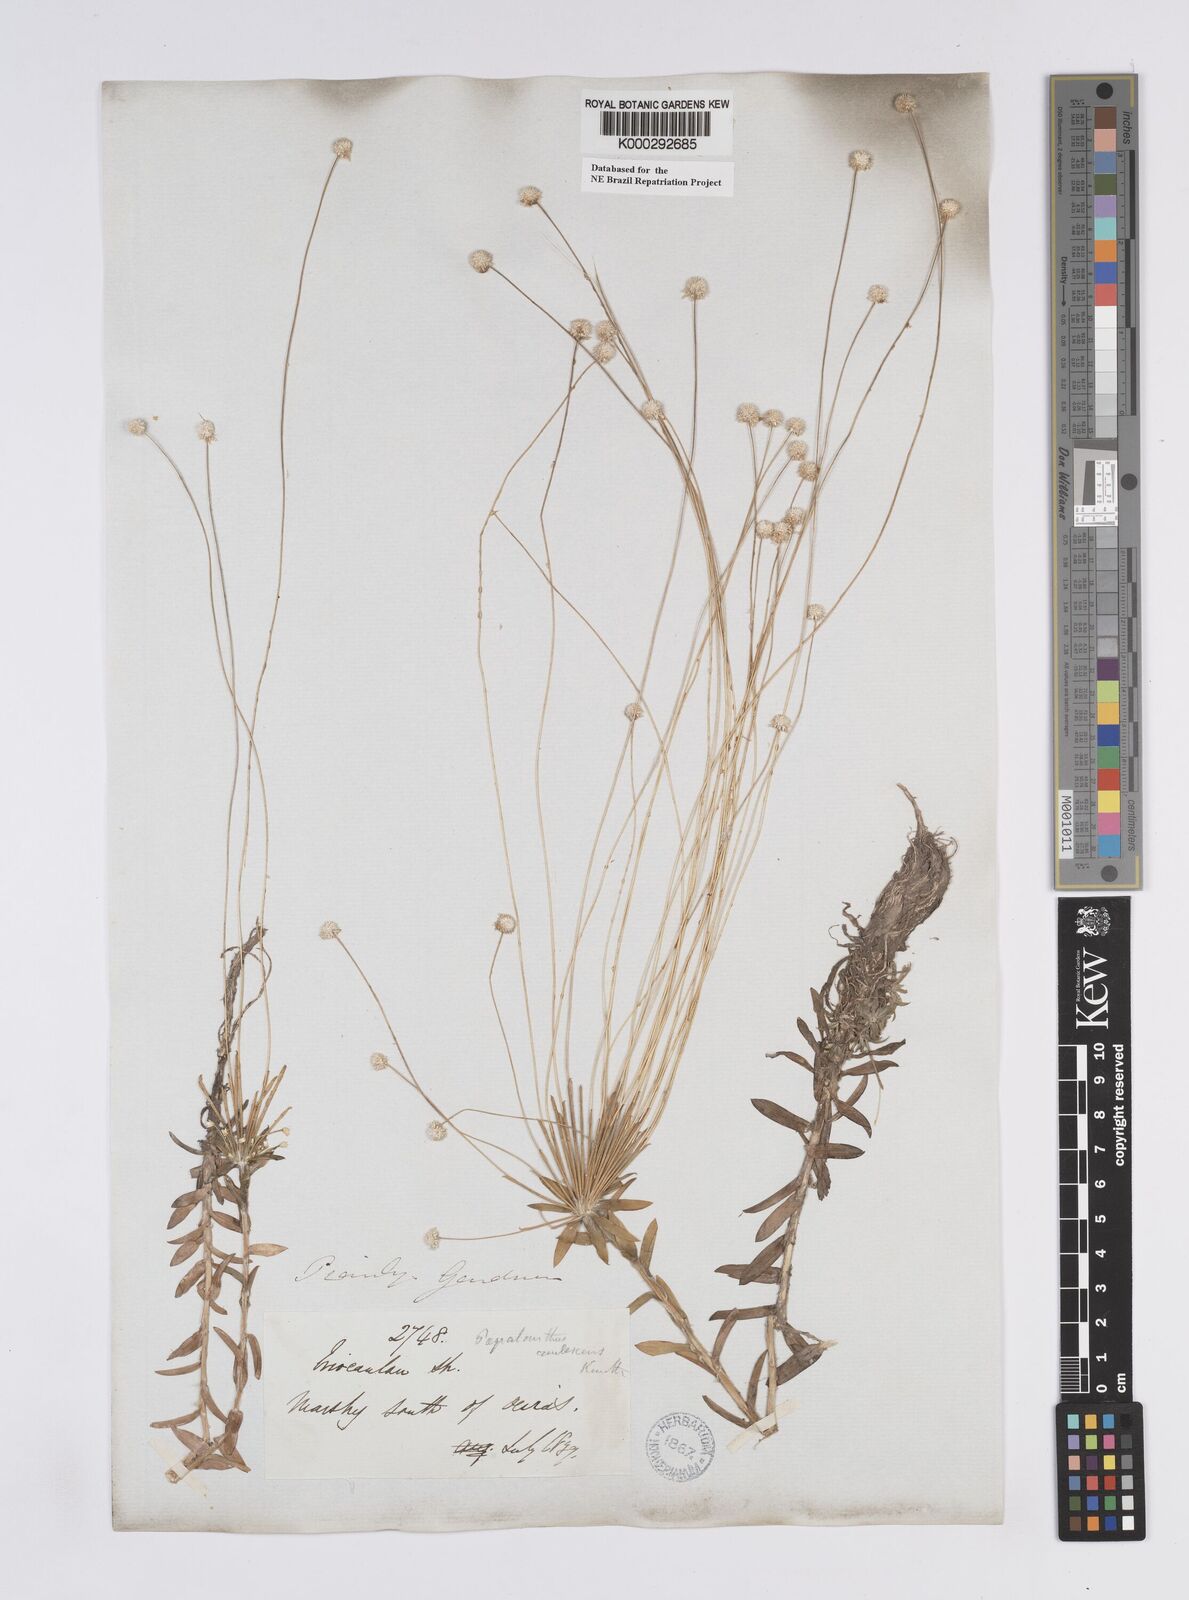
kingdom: Plantae
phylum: Tracheophyta
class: Liliopsida
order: Poales
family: Eriocaulaceae
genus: Syngonanthus
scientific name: Syngonanthus caulescens
